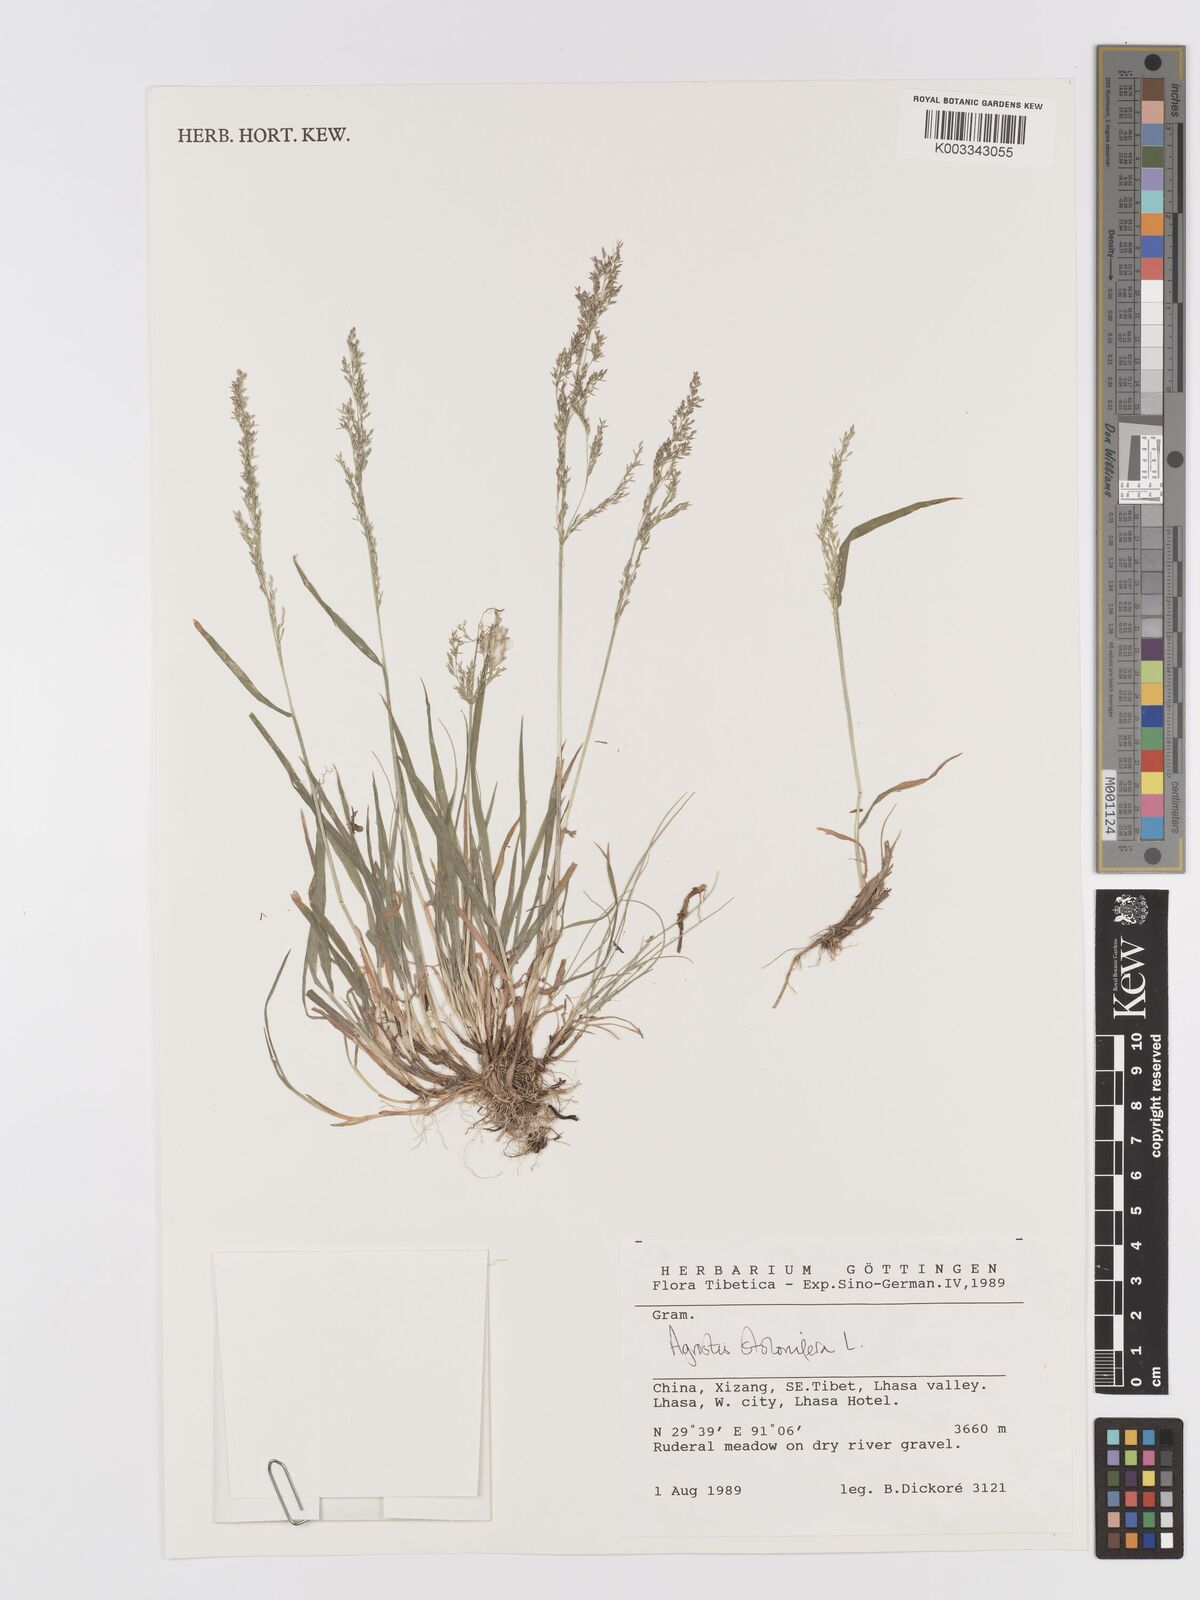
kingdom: Plantae
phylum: Tracheophyta
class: Liliopsida
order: Poales
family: Poaceae
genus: Agrostis
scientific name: Agrostis stolonifera
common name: Creeping bentgrass
